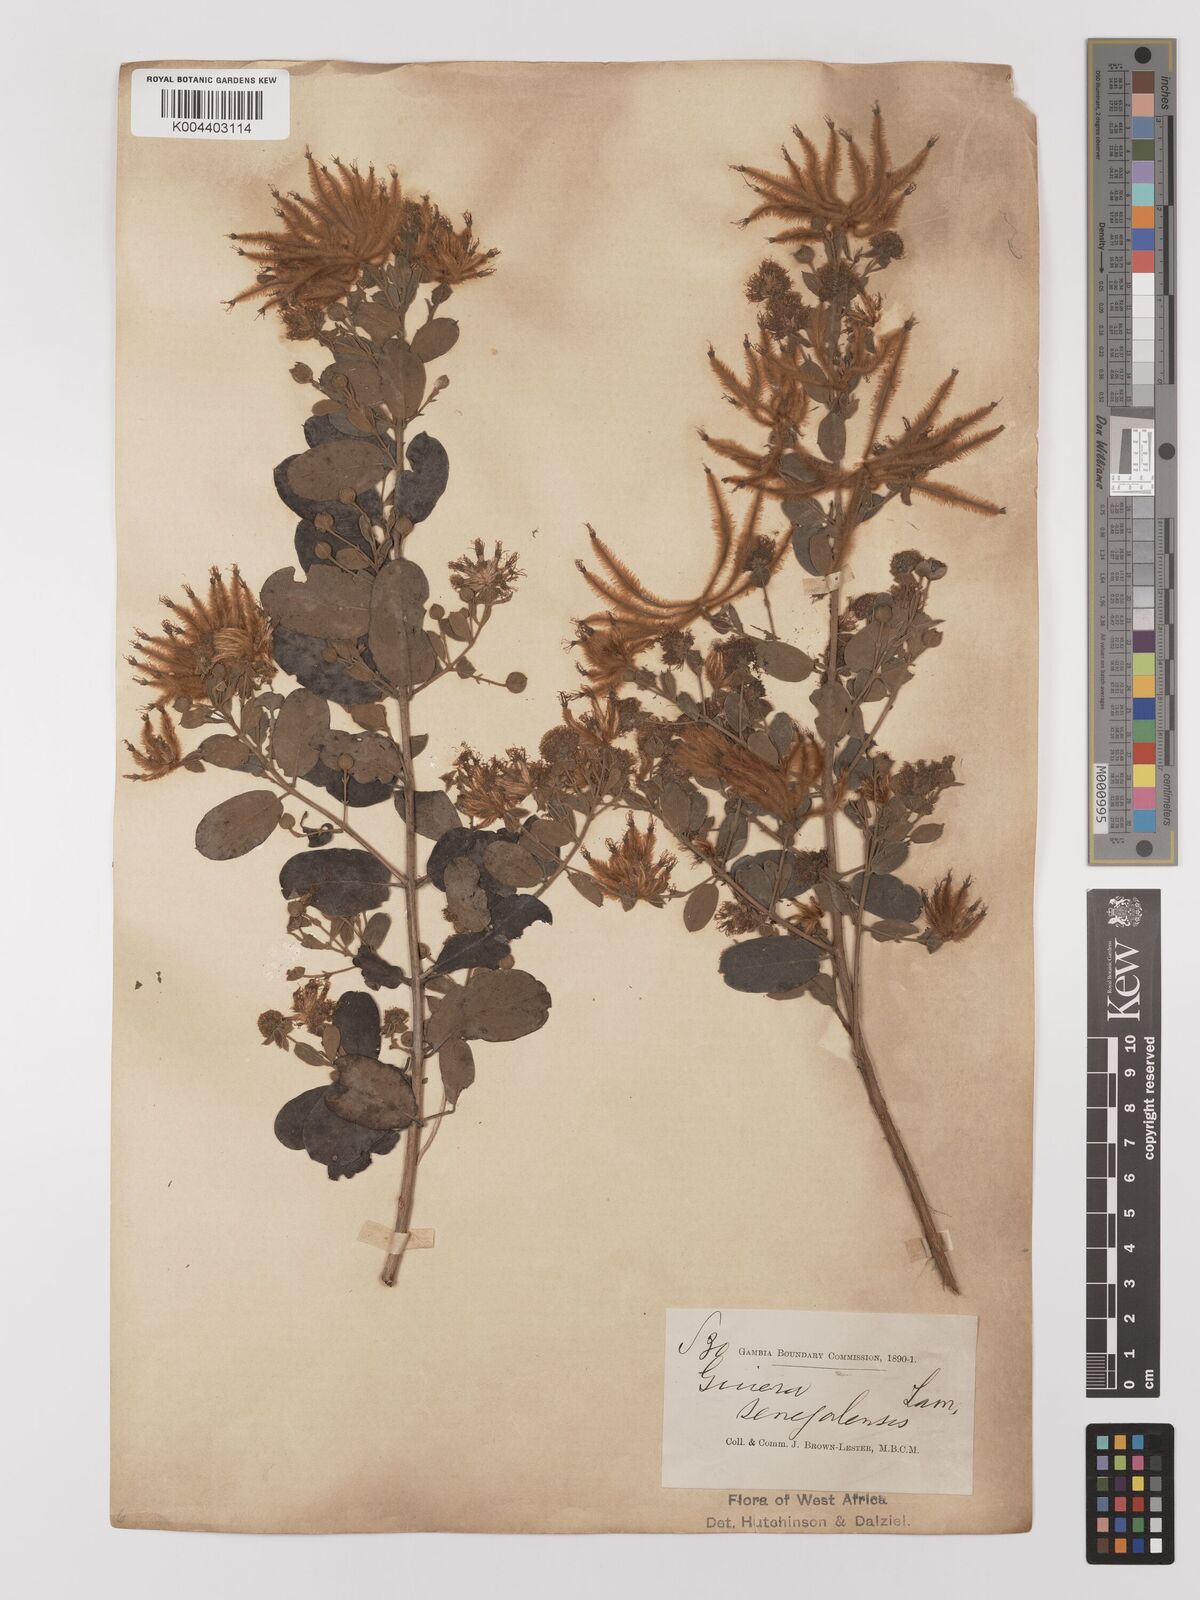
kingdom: Plantae
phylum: Tracheophyta
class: Magnoliopsida
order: Myrtales
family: Combretaceae
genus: Guiera
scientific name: Guiera senegalensis
